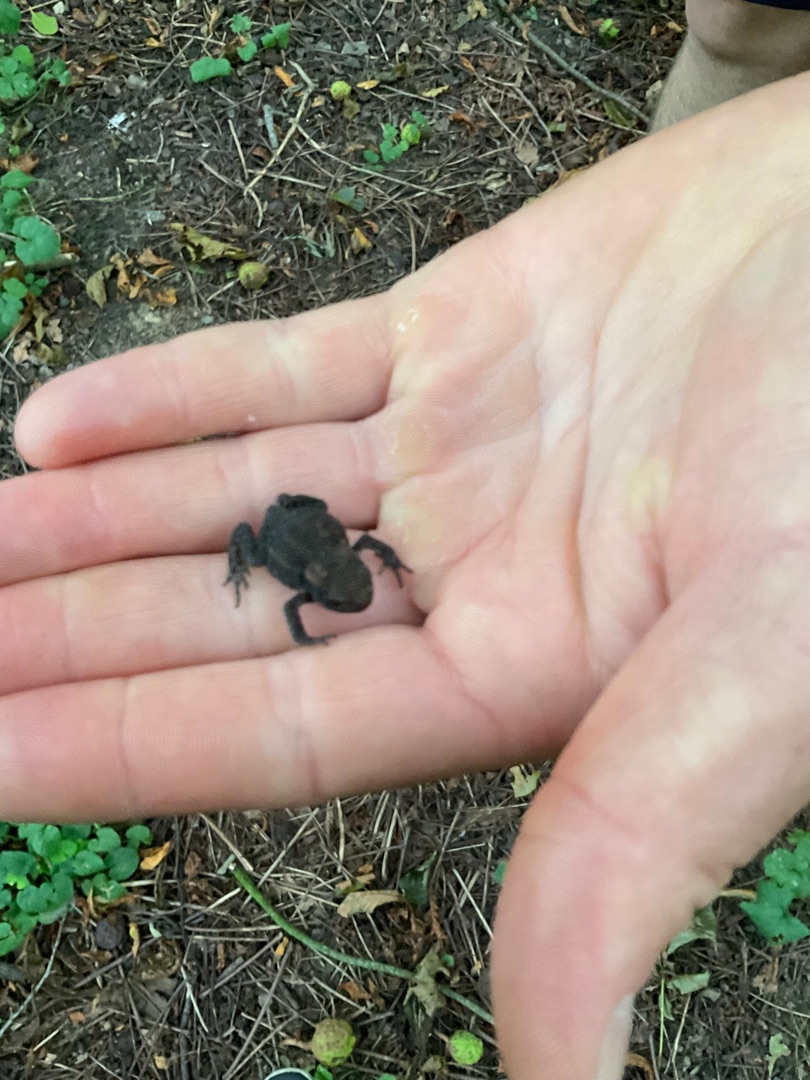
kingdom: Animalia
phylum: Chordata
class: Amphibia
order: Anura
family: Bufonidae
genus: Bufo
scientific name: Bufo bufo
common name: Skrubtudse
